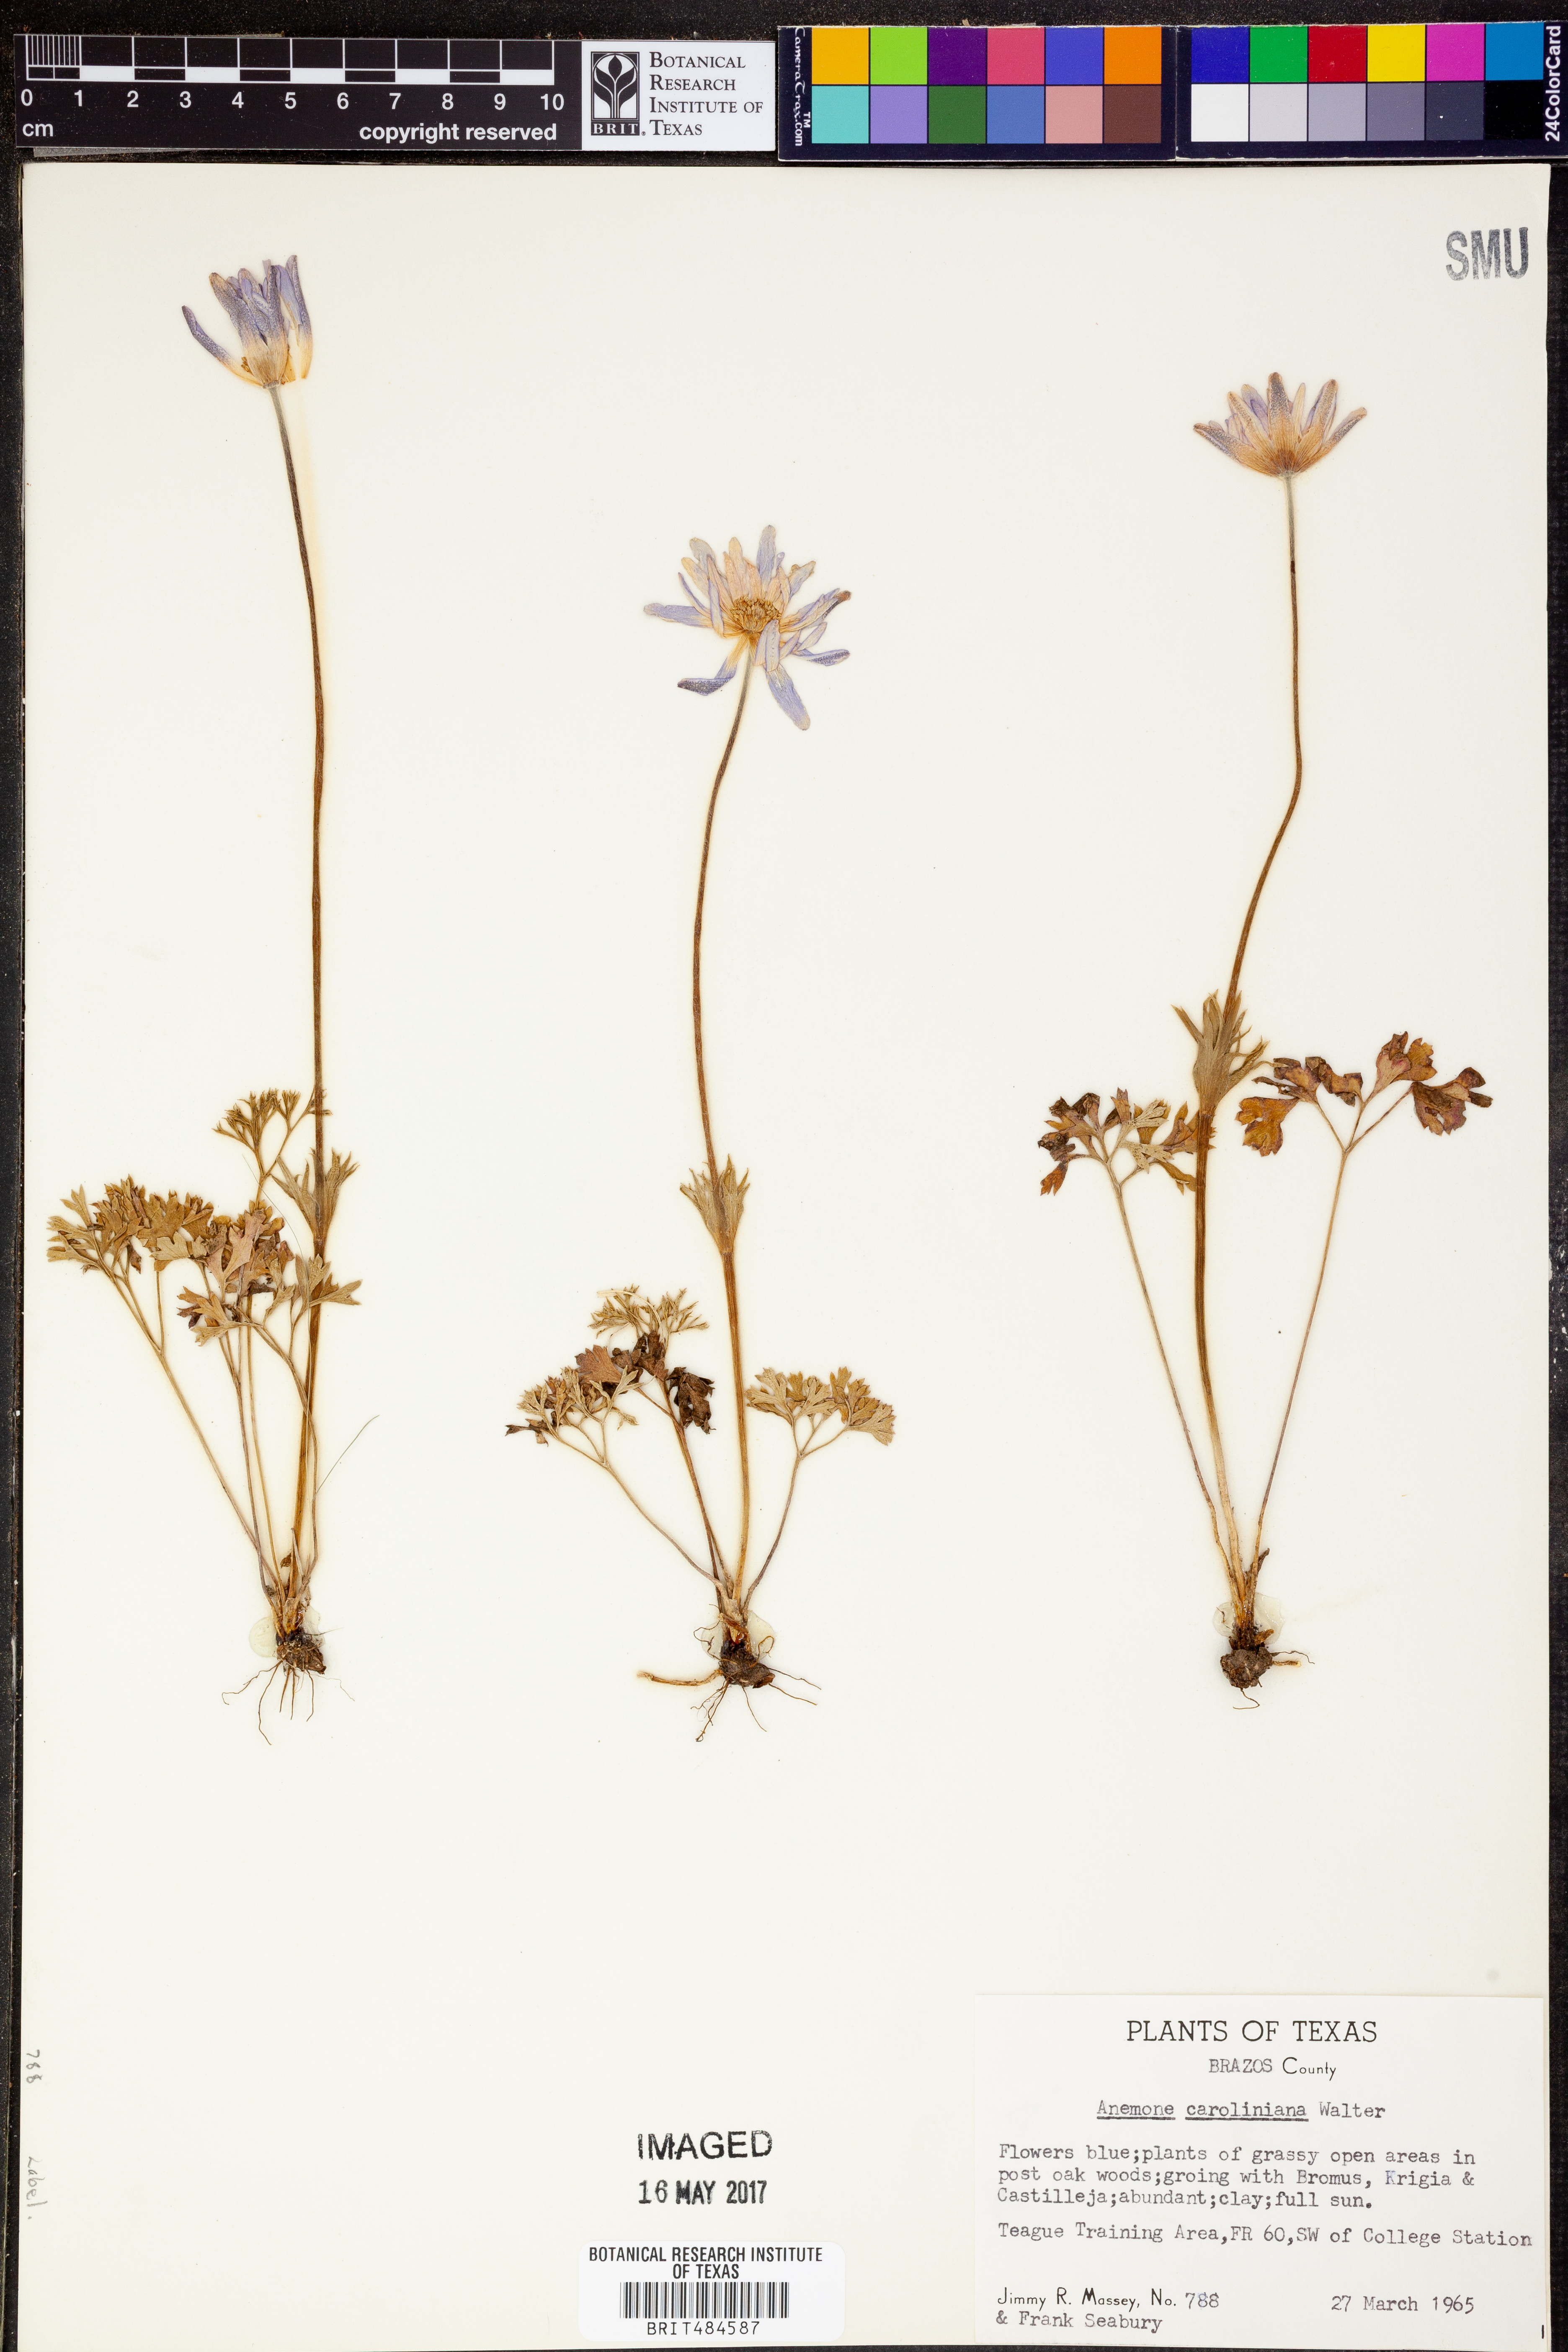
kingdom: Plantae
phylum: Tracheophyta
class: Magnoliopsida
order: Ranunculales
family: Ranunculaceae
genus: Anemone
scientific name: Anemone caroliniana
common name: Carolina anemone
